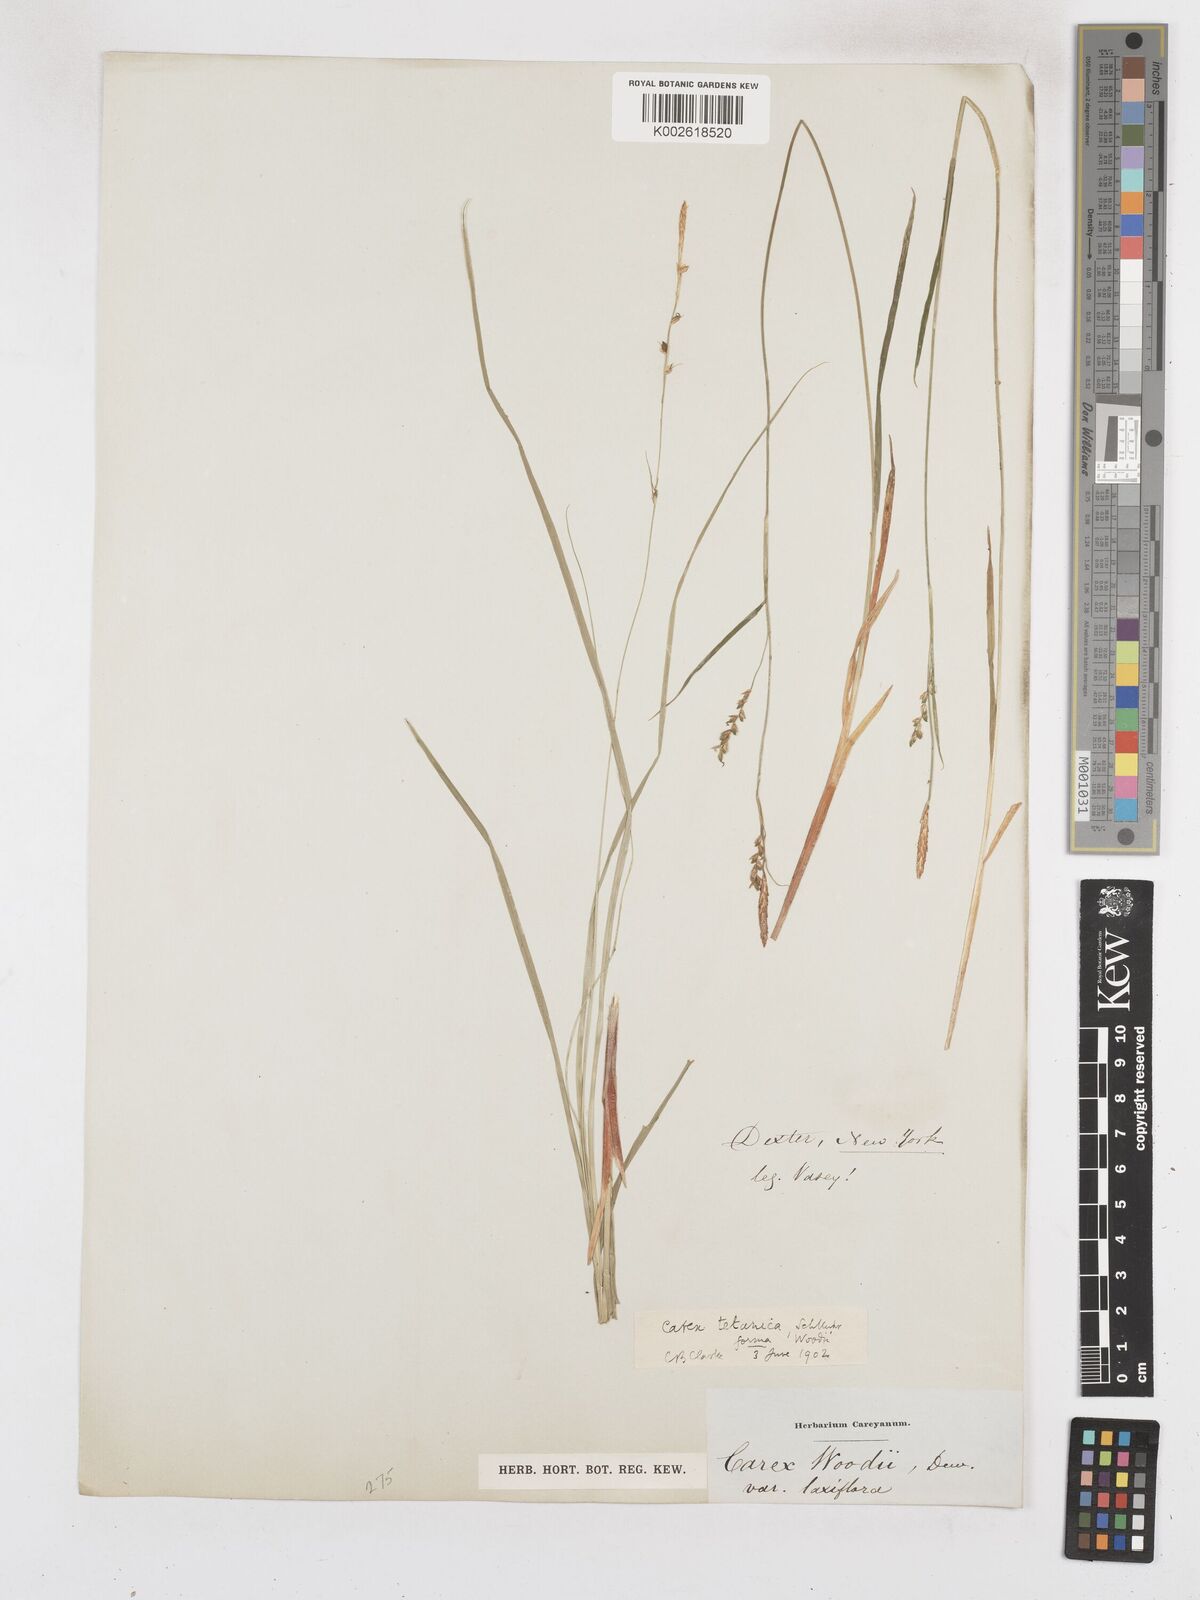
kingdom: Plantae
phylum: Tracheophyta
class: Liliopsida
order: Poales
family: Cyperaceae
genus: Carex
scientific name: Carex tetanica
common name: Rigid sedge
